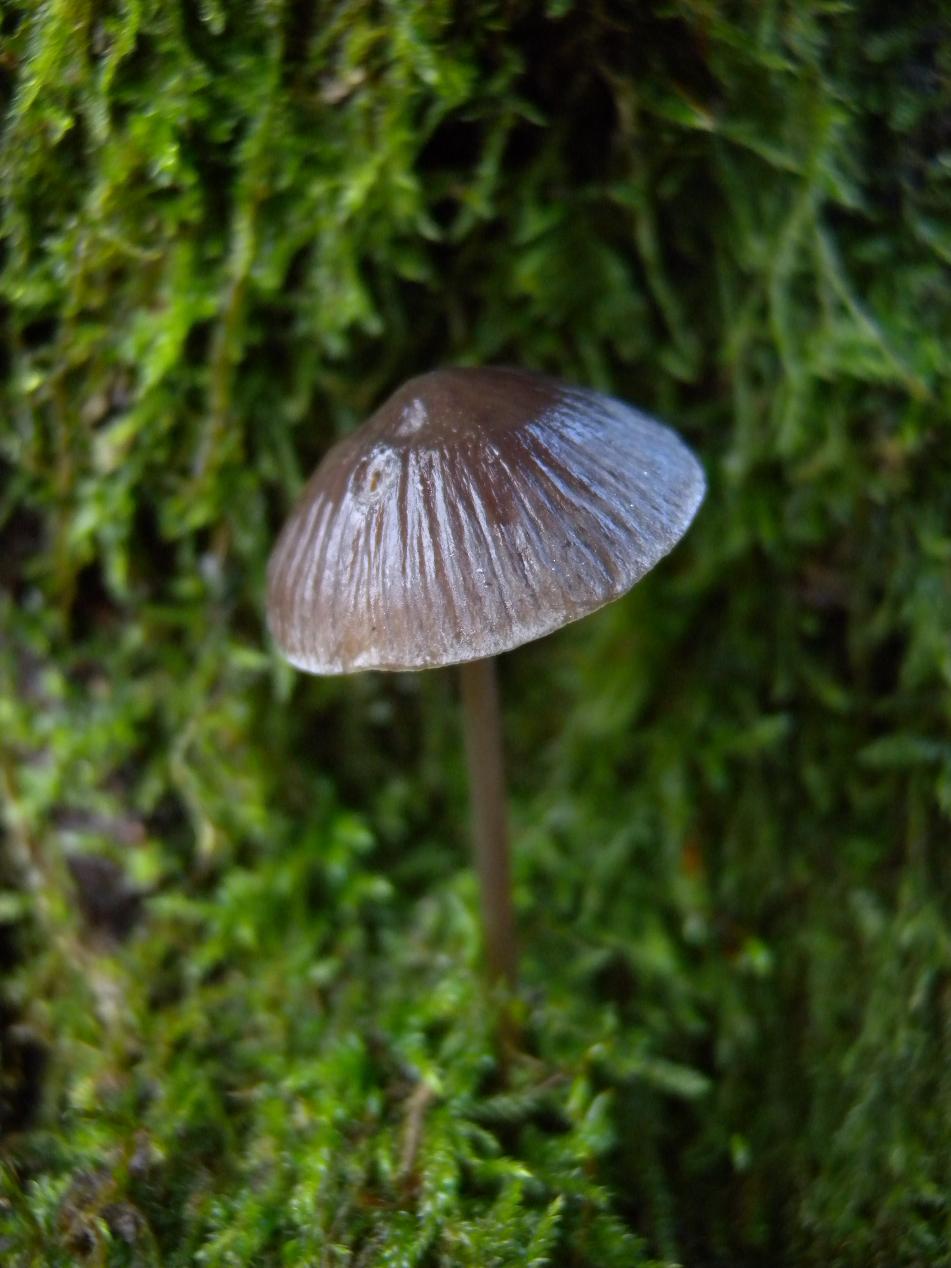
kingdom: Fungi
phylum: Basidiomycota
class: Agaricomycetes
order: Agaricales
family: Mycenaceae
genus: Mycena
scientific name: Mycena polygramma
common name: mangestribet huesvamp
